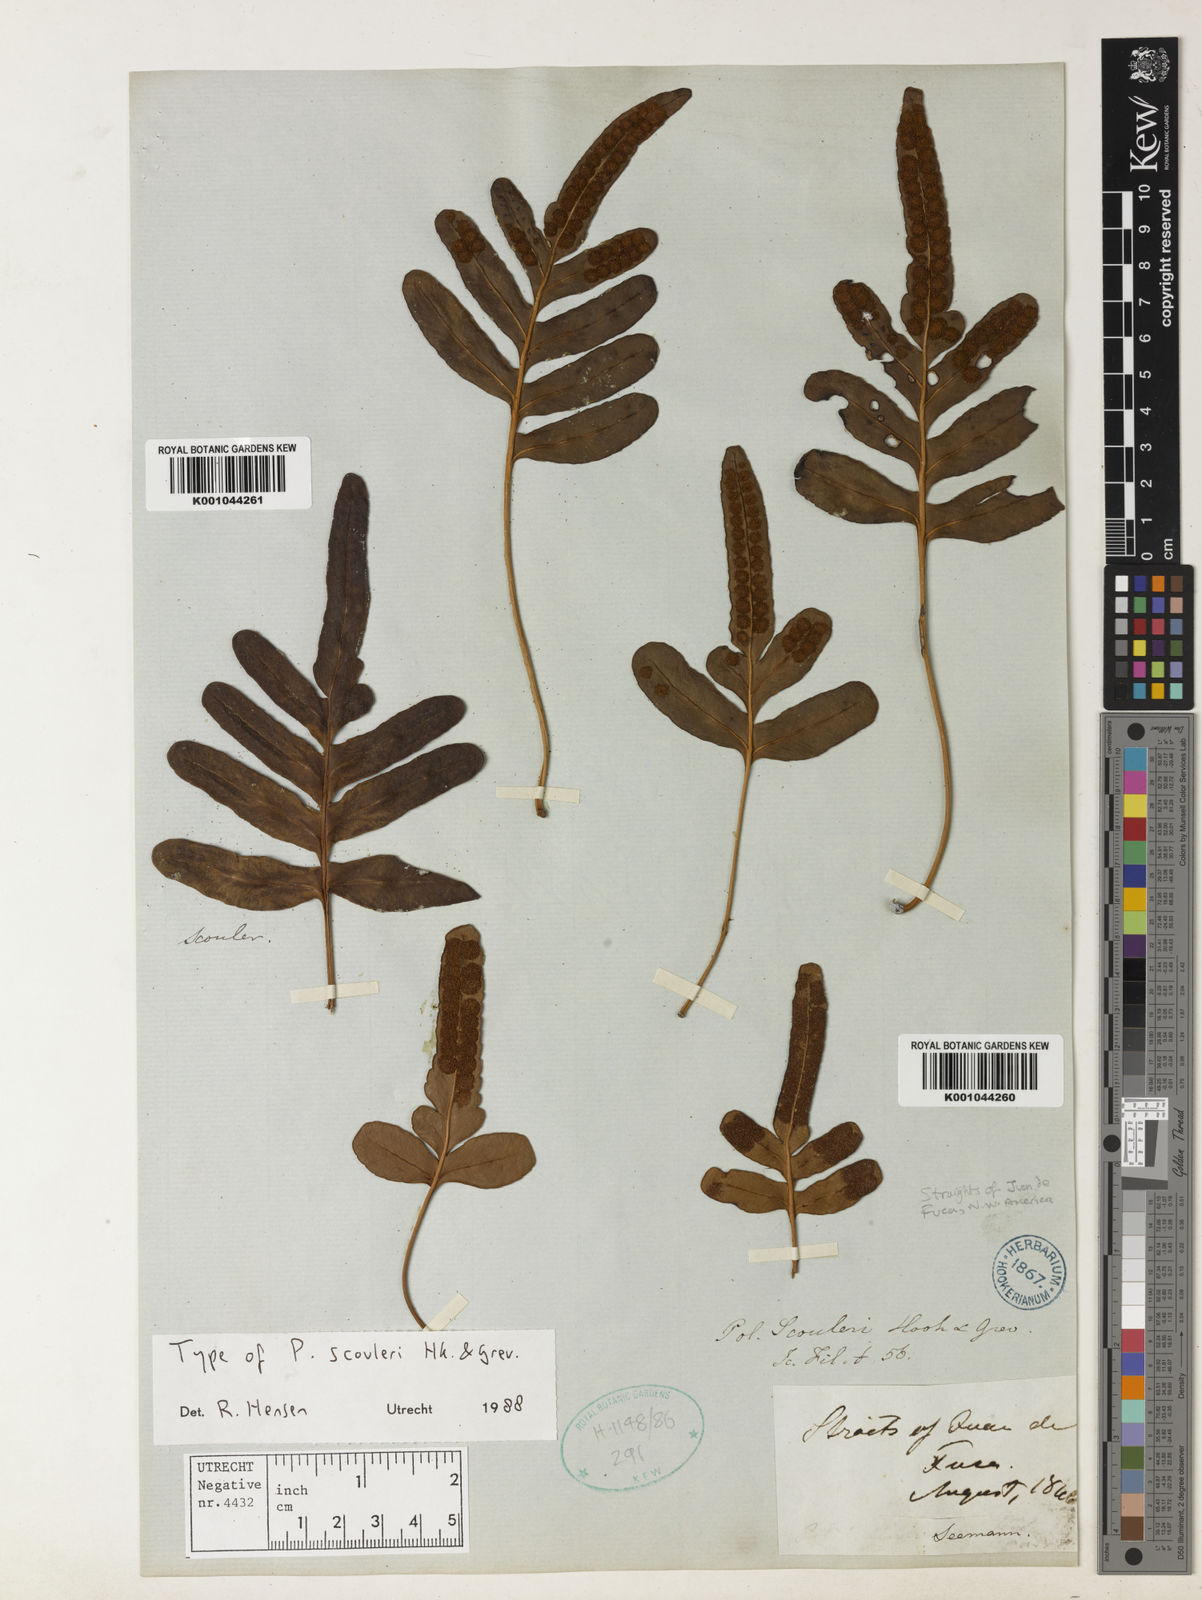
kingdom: Plantae
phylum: Tracheophyta
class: Polypodiopsida
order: Polypodiales
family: Polypodiaceae
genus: Polypodium
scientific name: Polypodium scouleri
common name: Scouler's polypody
